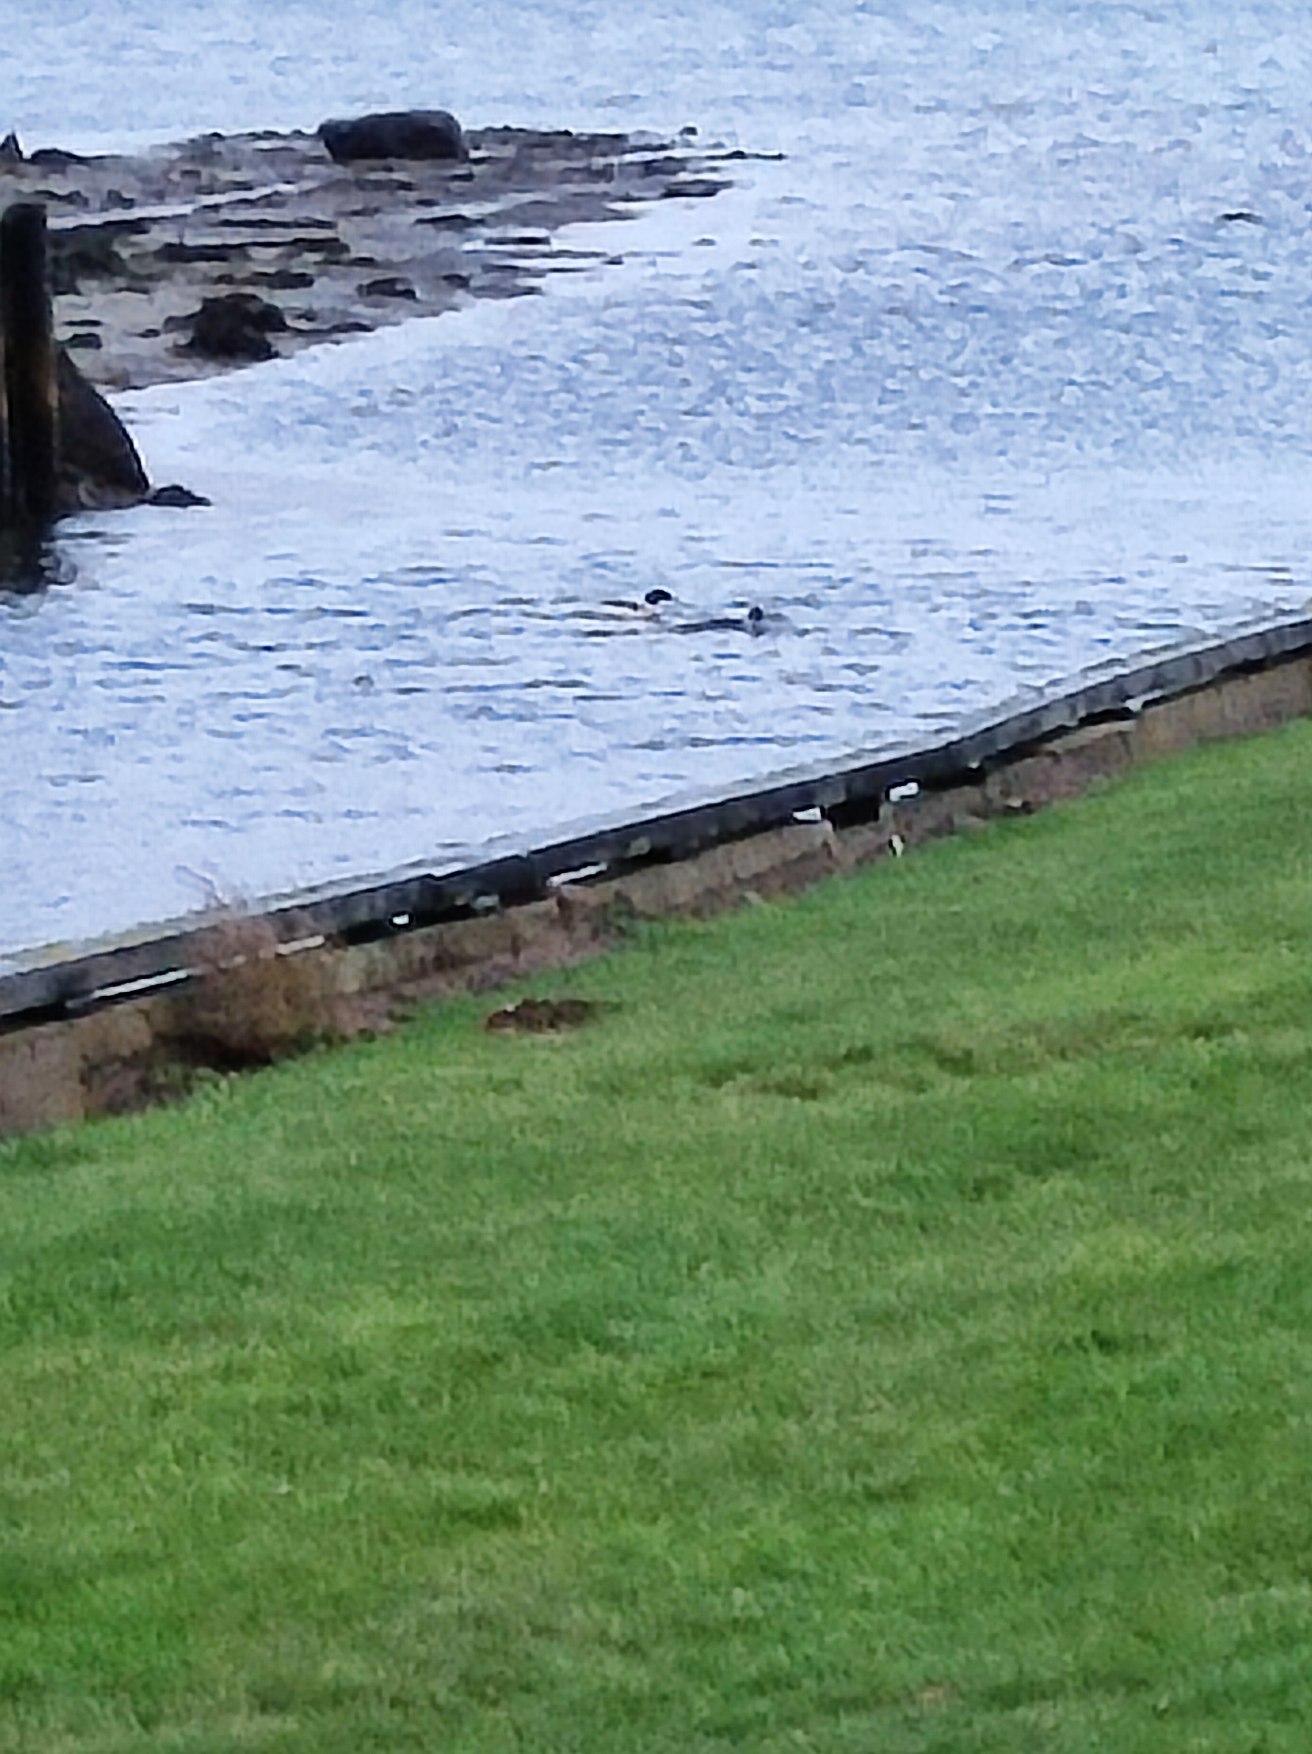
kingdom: Animalia
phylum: Chordata
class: Aves
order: Anseriformes
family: Anatidae
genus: Mergus
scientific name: Mergus merganser
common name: Stor skallesluger
